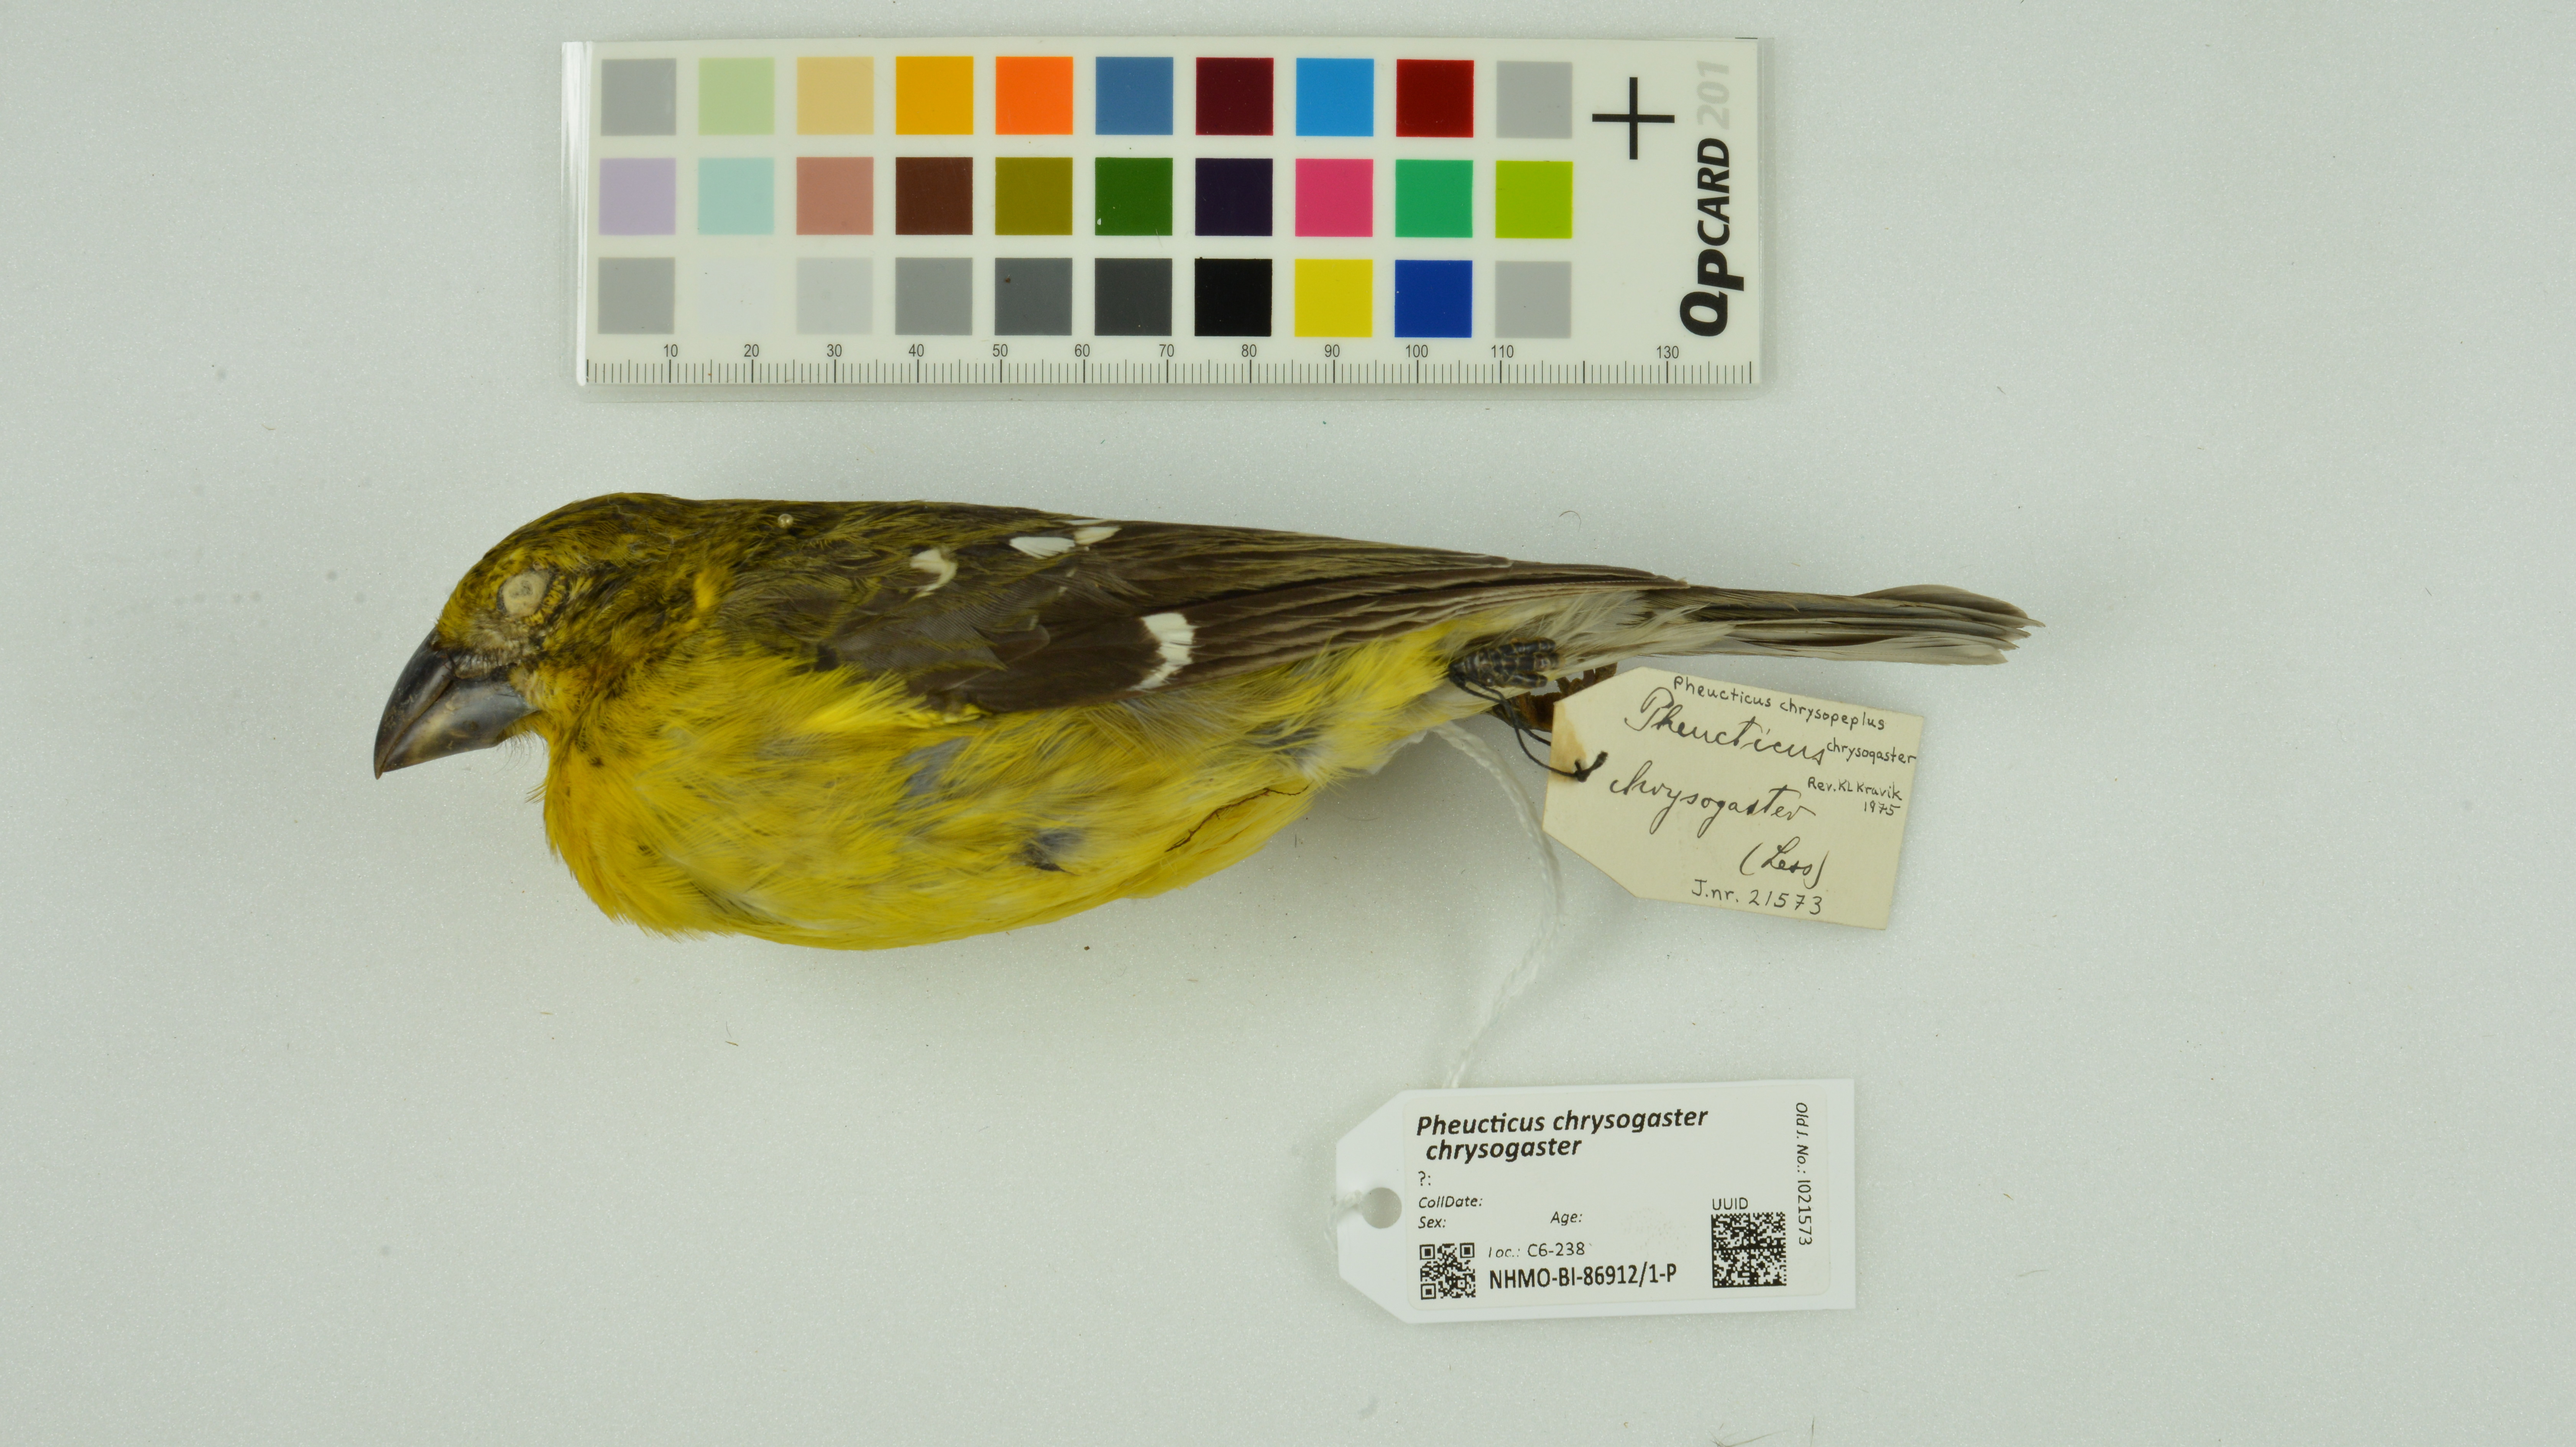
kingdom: Animalia
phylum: Chordata
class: Aves
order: Passeriformes
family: Cardinalidae
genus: Pheucticus
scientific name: Pheucticus chrysogaster
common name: Golden grosbeak
